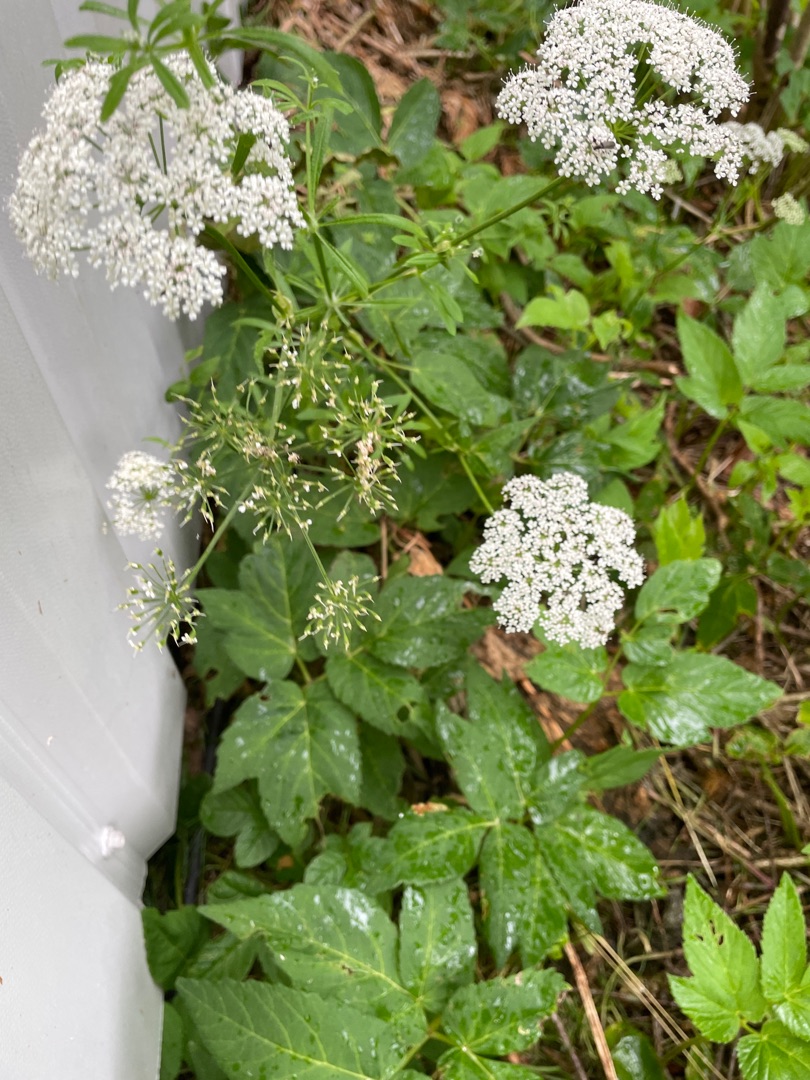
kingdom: Plantae
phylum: Tracheophyta
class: Magnoliopsida
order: Apiales
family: Apiaceae
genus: Aegopodium
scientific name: Aegopodium podagraria
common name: Skvalderkål
